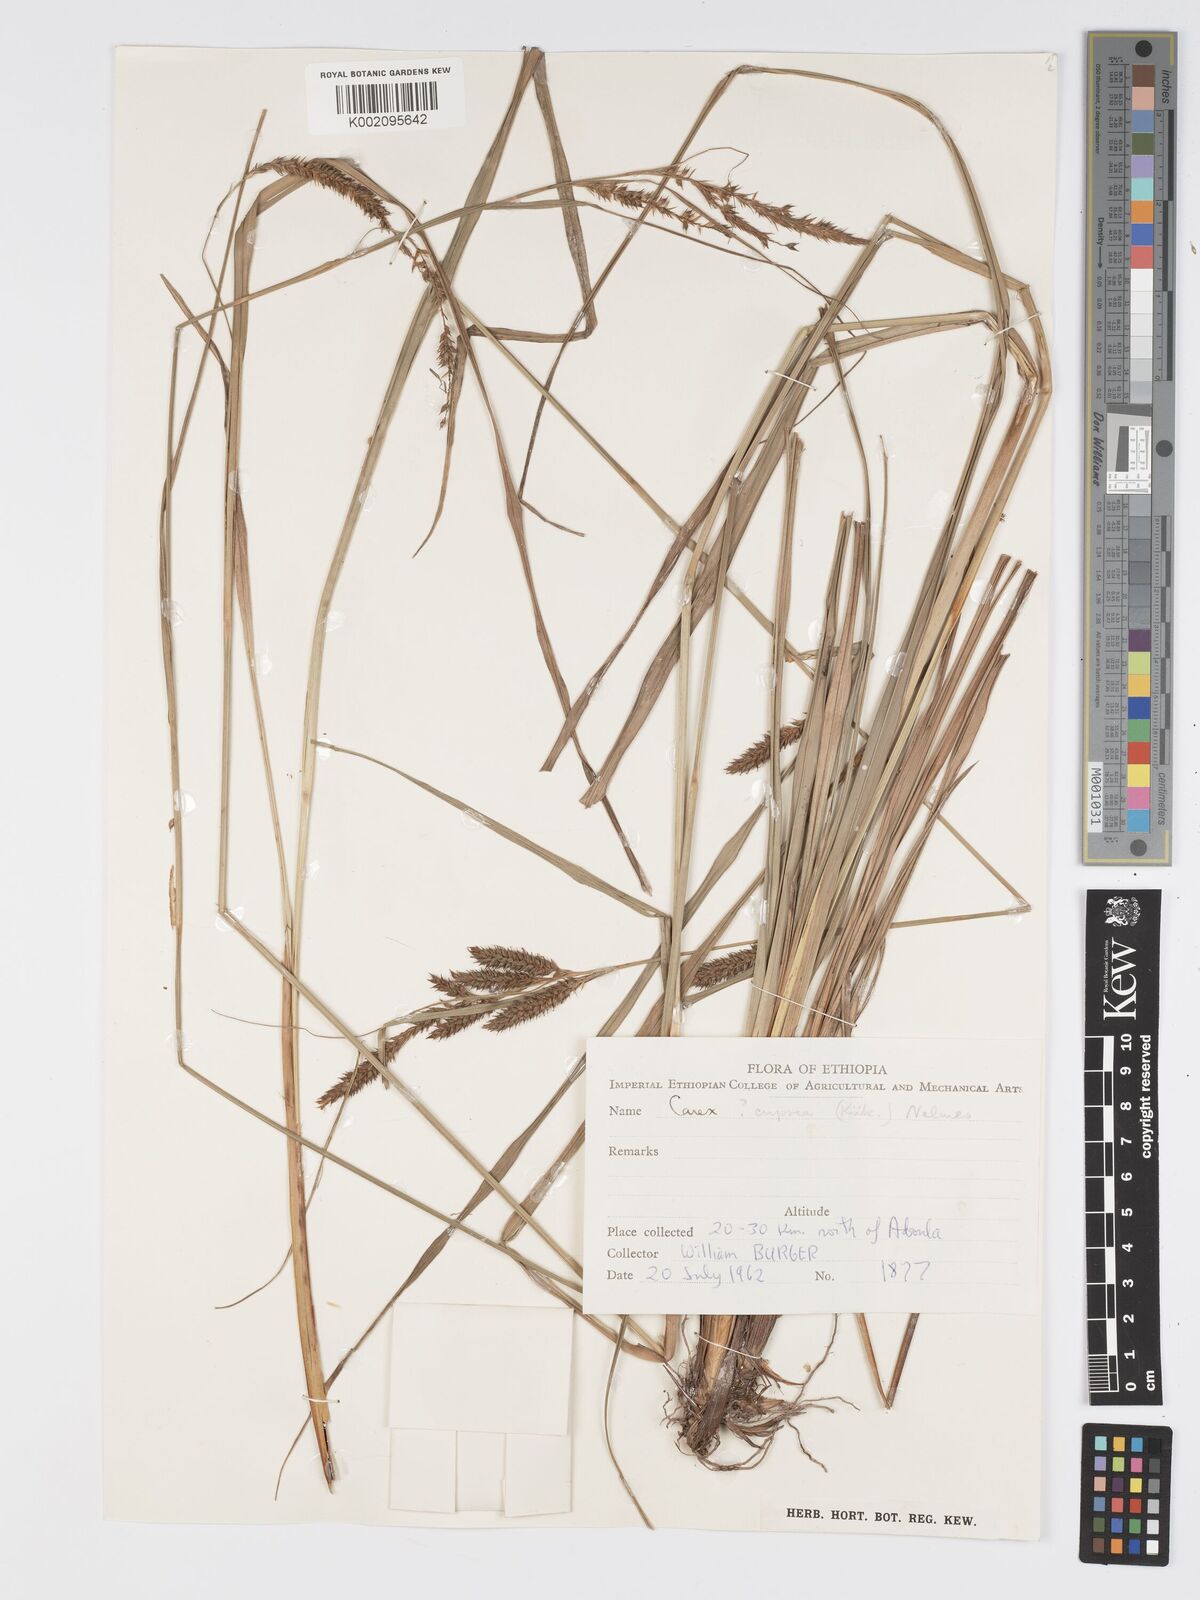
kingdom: Plantae
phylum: Tracheophyta
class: Liliopsida
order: Poales
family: Cyperaceae
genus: Carex
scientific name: Carex petitiana
